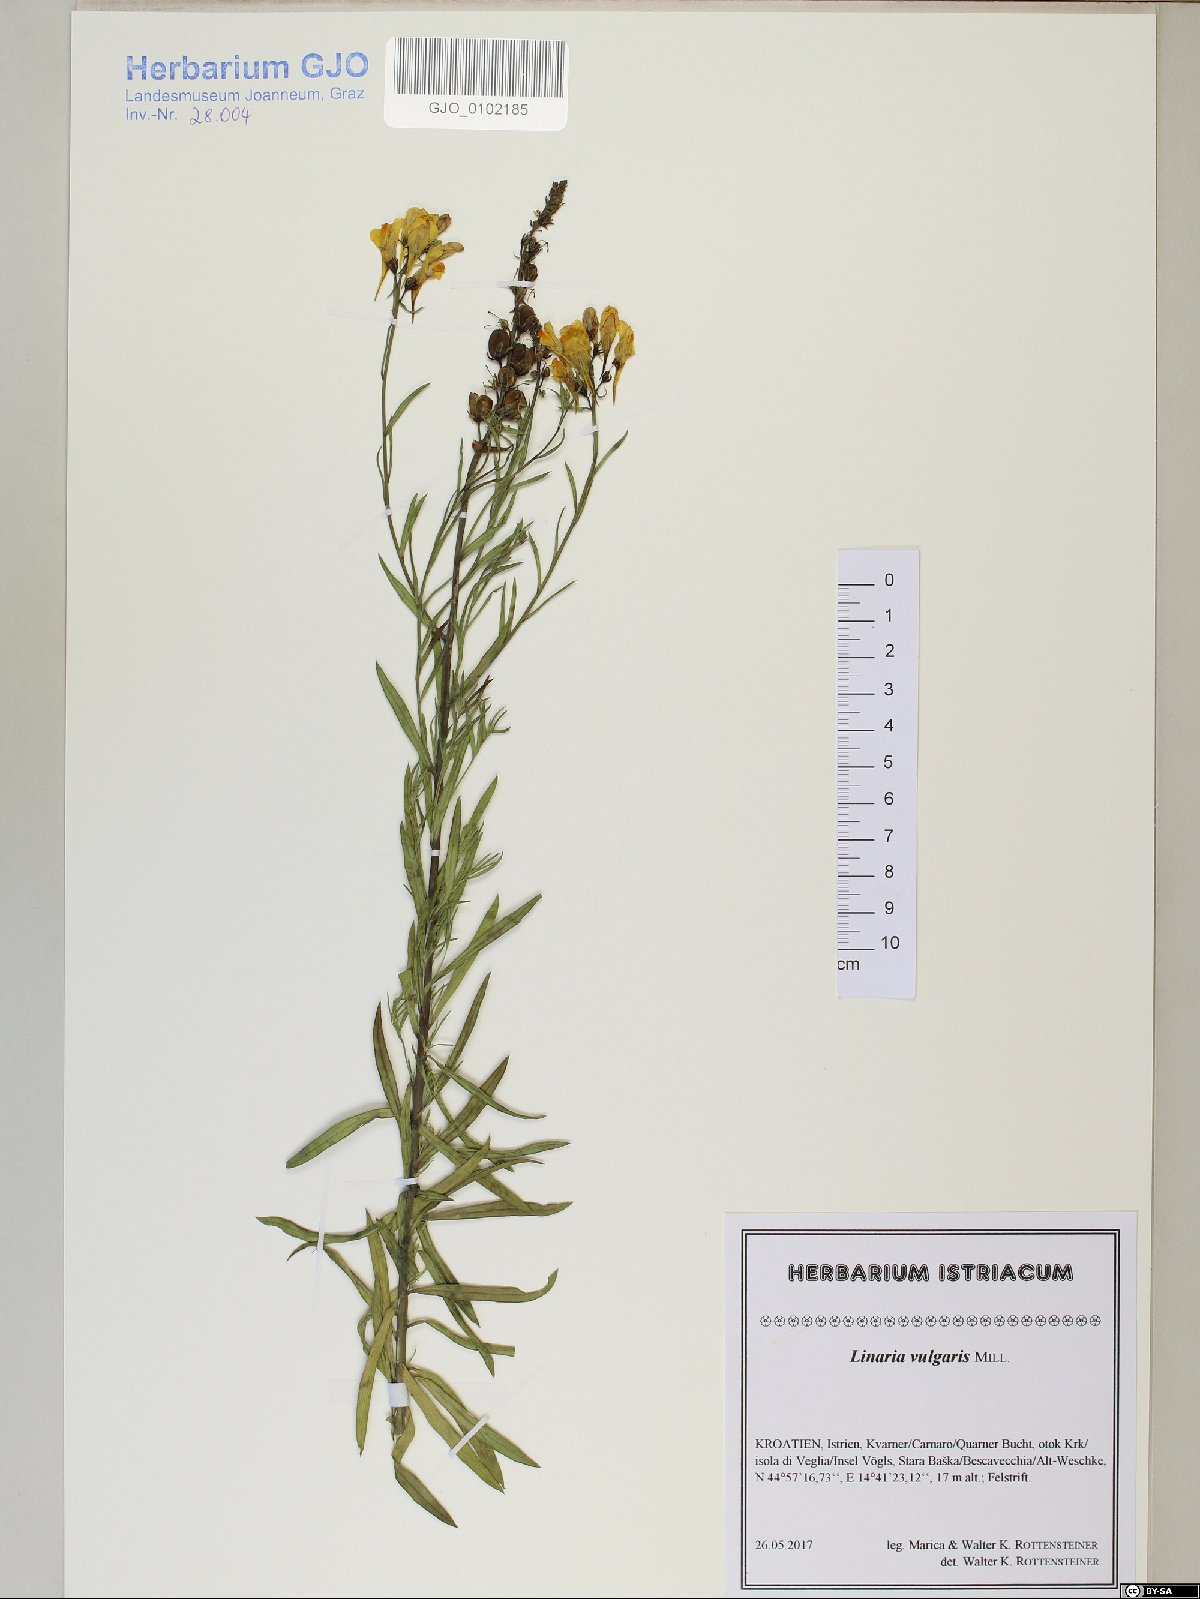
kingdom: Plantae
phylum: Tracheophyta
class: Magnoliopsida
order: Lamiales
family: Plantaginaceae
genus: Linaria
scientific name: Linaria vulgaris
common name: Butter and eggs
